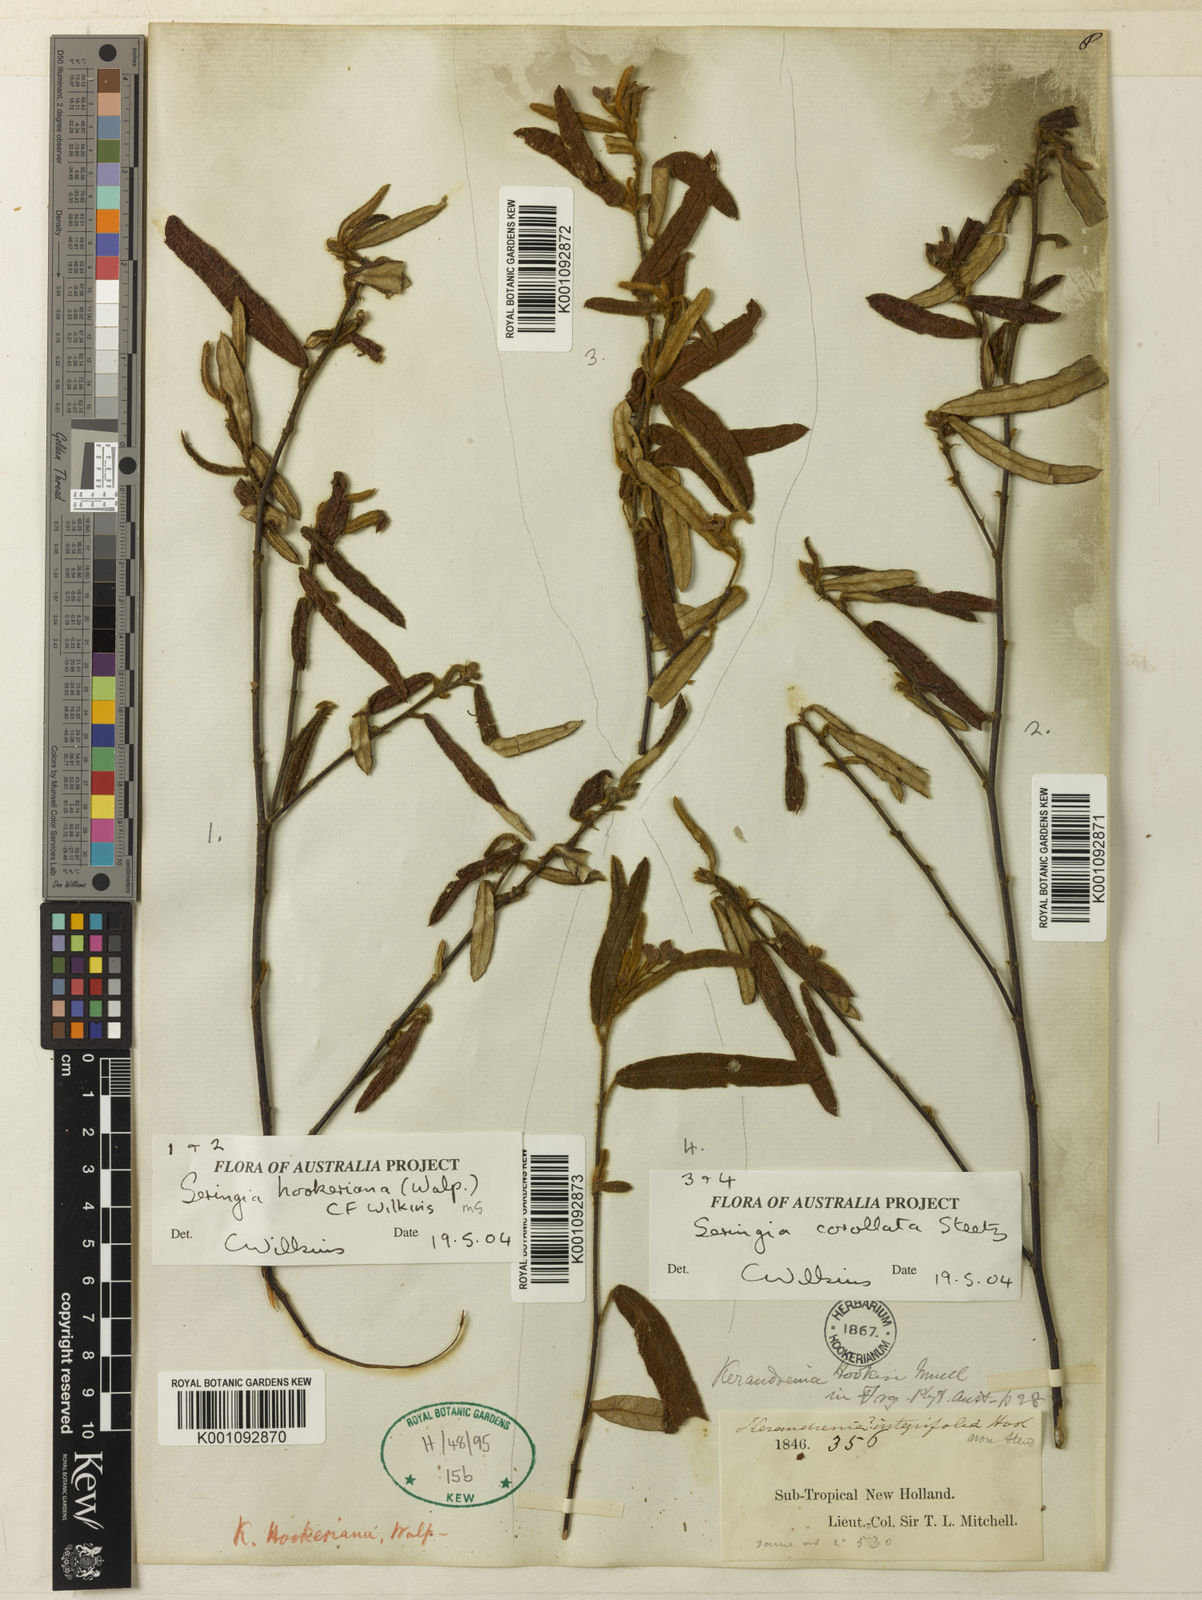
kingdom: Plantae
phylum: Tracheophyta
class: Magnoliopsida
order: Malvales
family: Malvaceae
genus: Seringia
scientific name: Seringia
